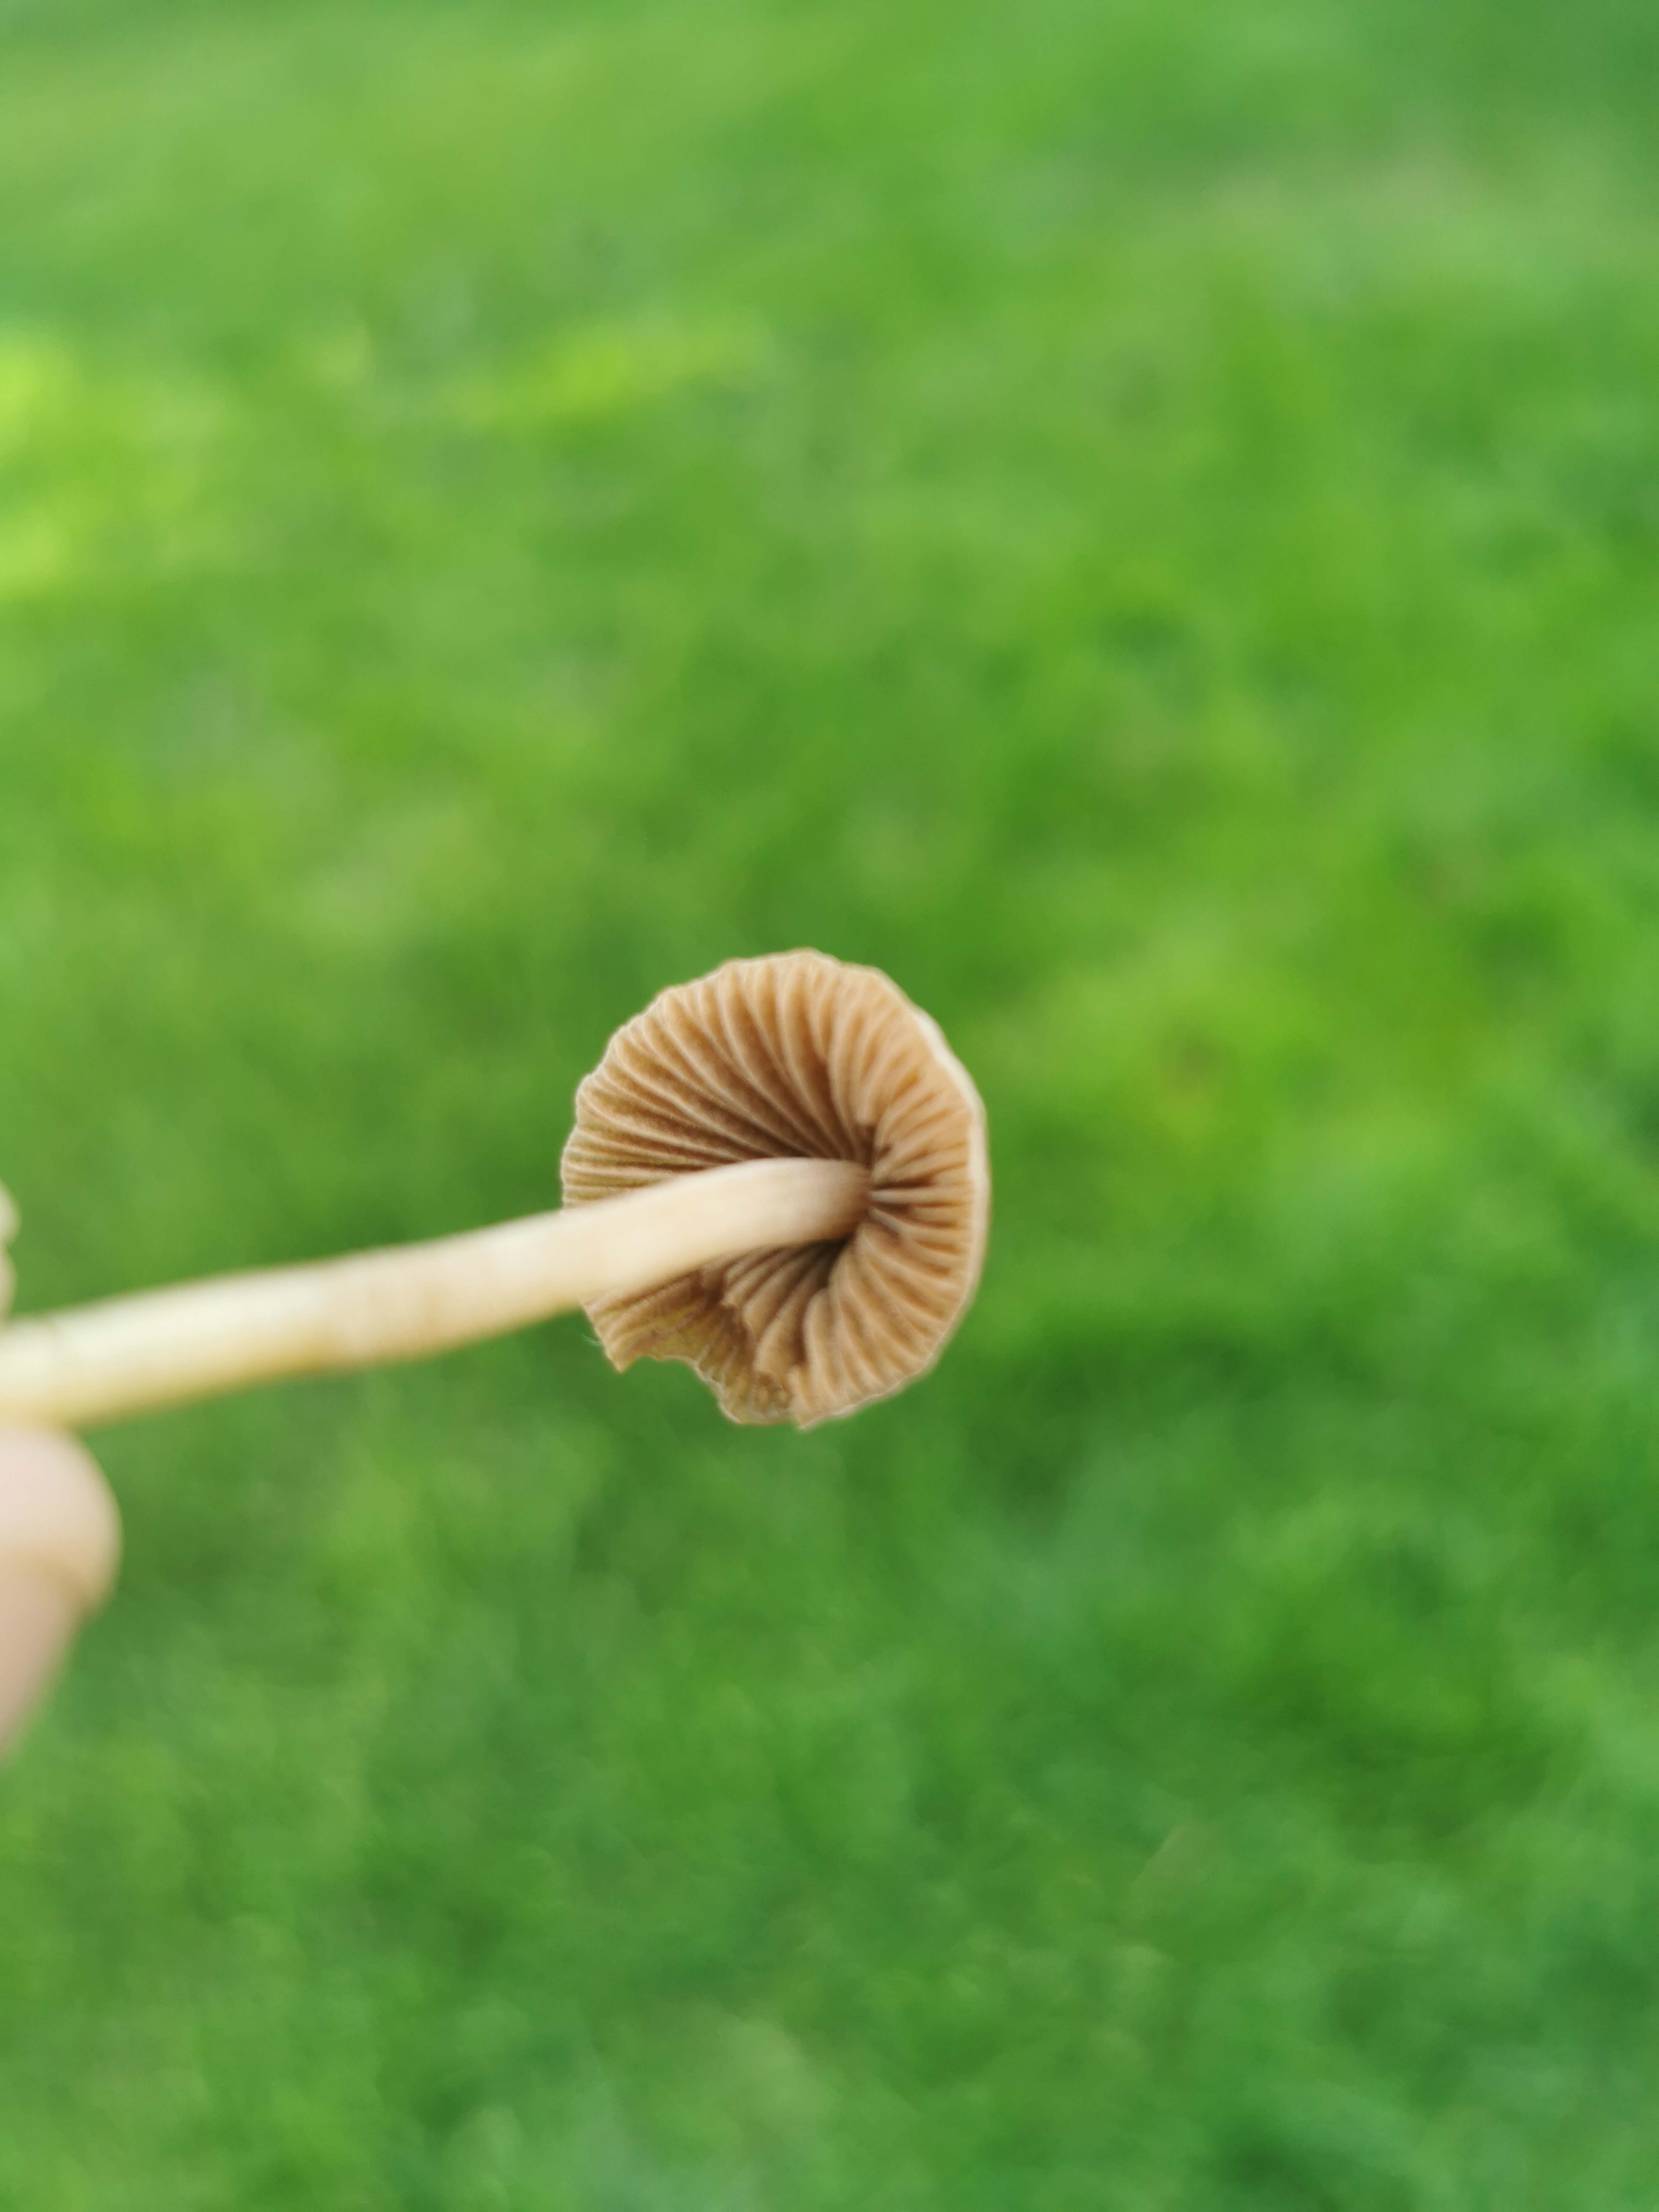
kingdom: Fungi
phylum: Basidiomycota
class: Agaricomycetes
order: Agaricales
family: Bolbitiaceae
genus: Panaeolina
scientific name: Panaeolina foenisecii
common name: høslætsvamp
